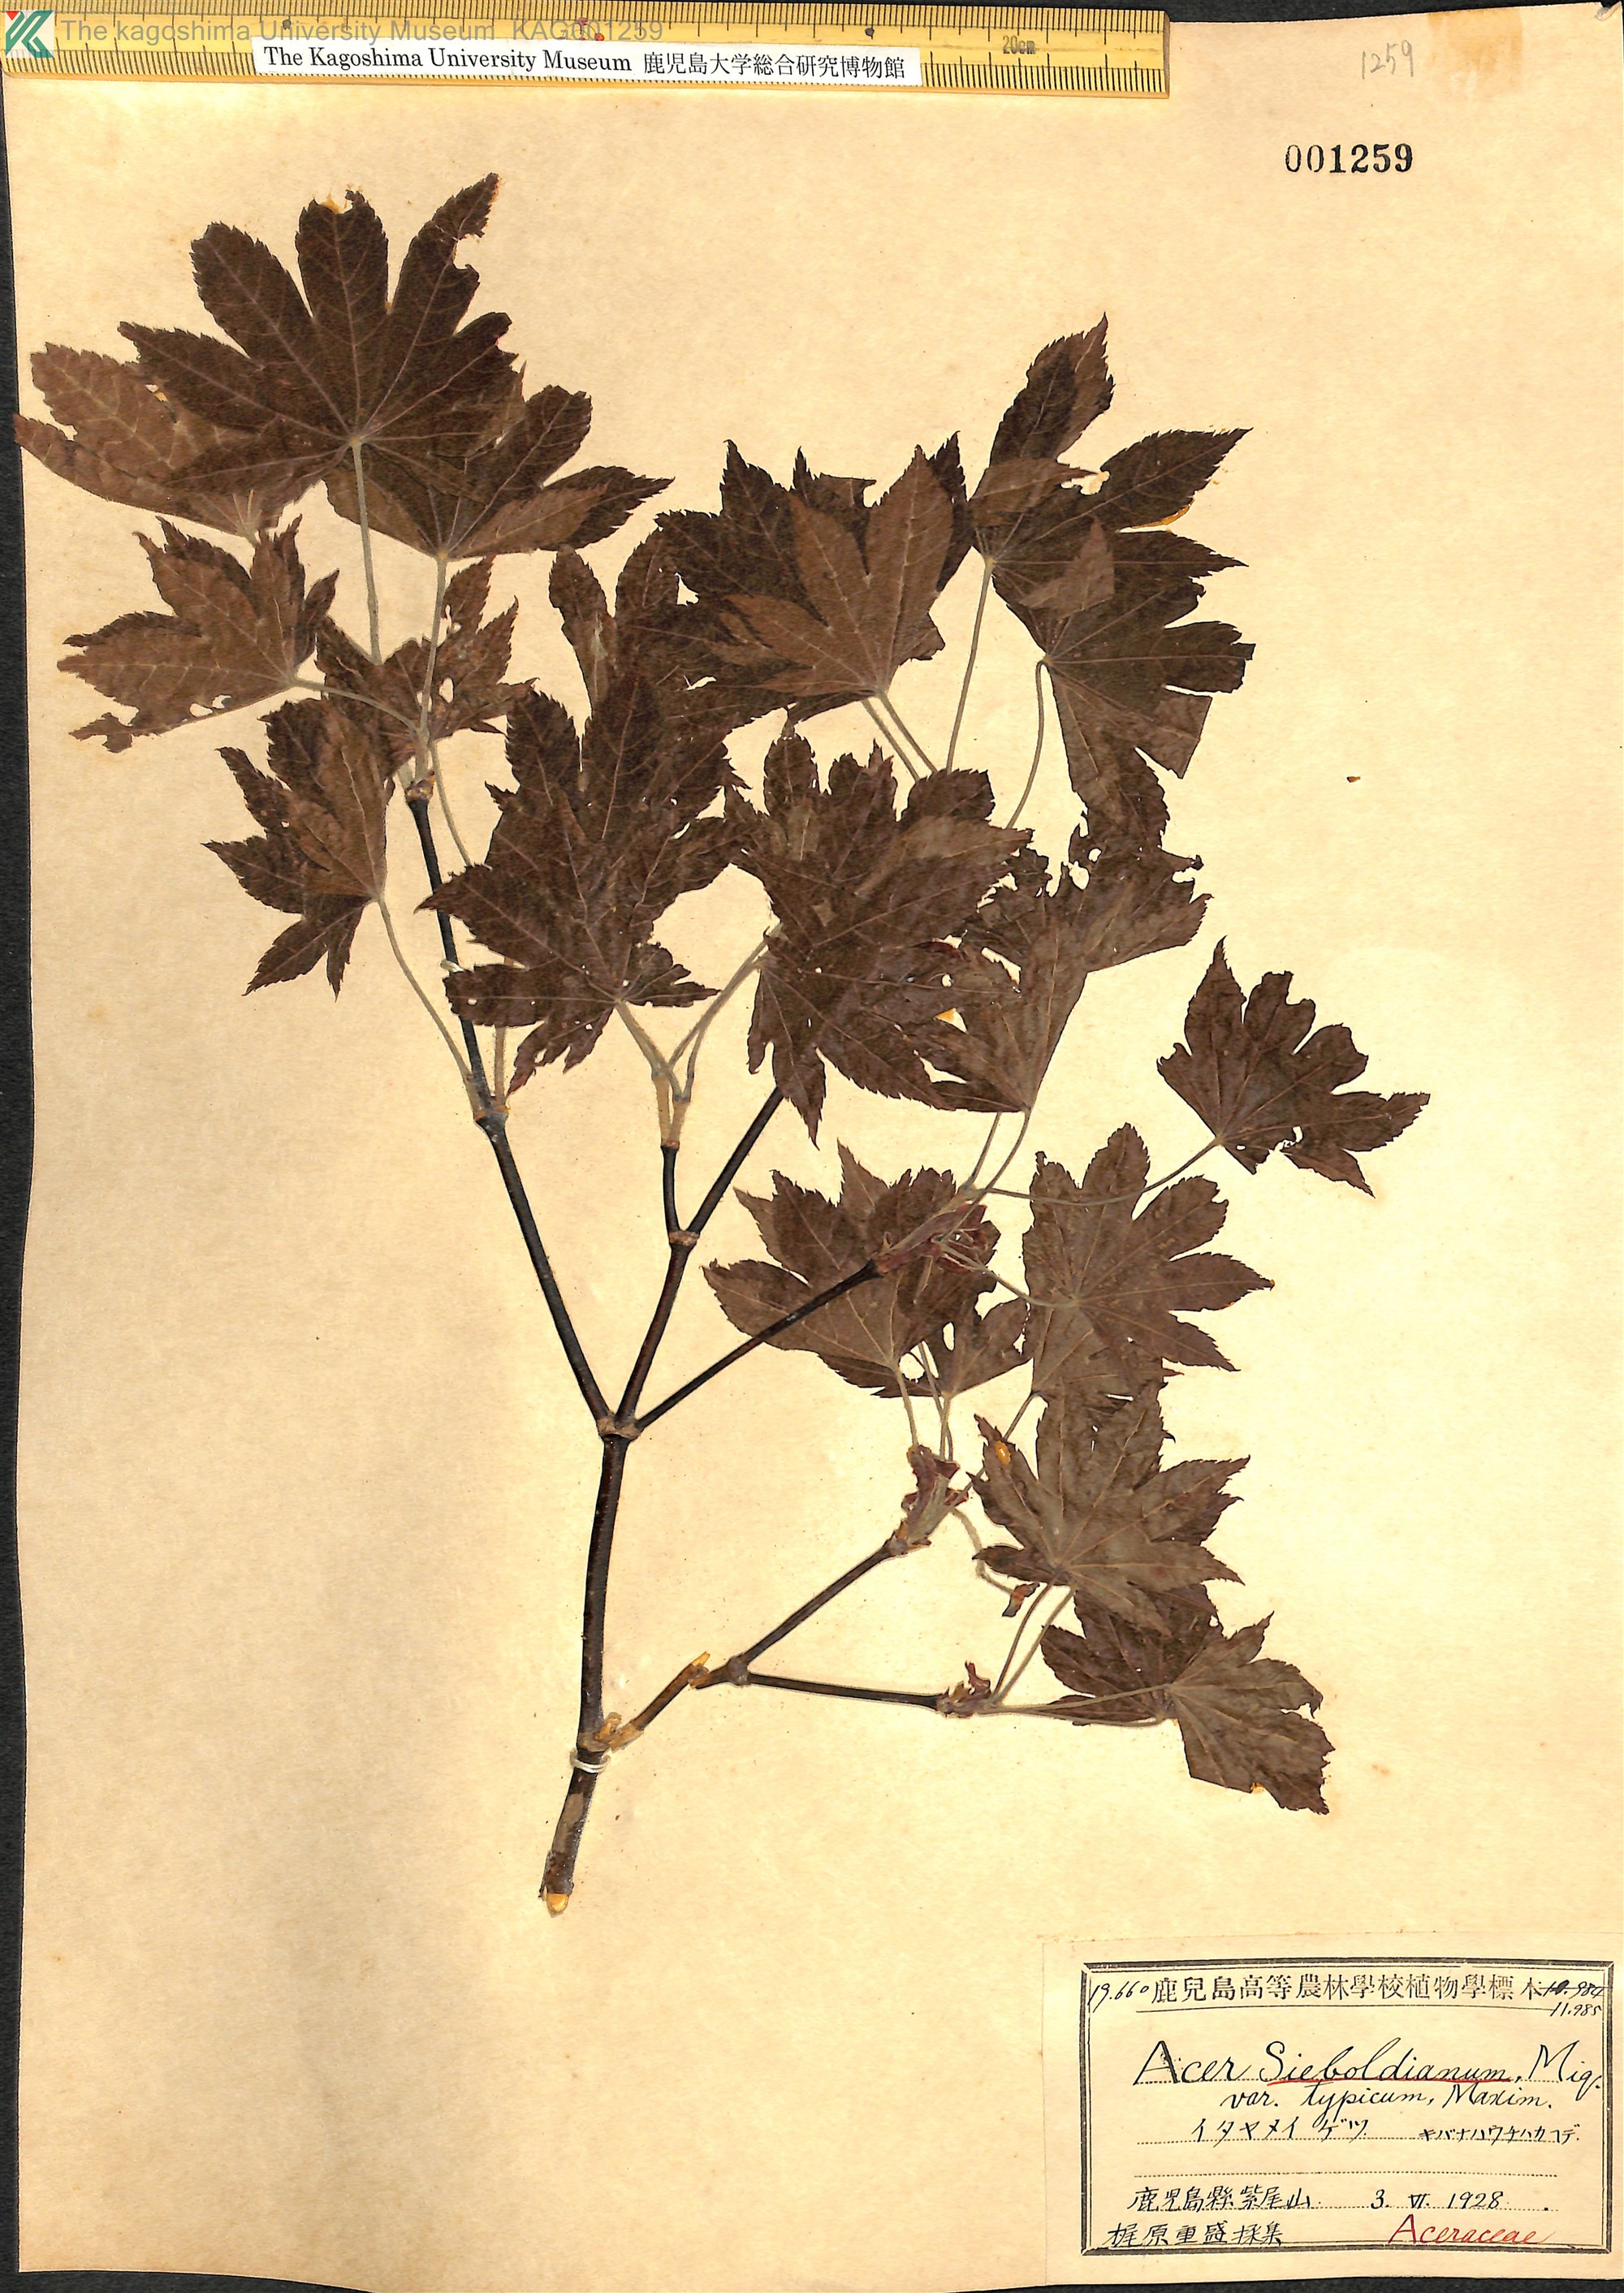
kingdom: Plantae
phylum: Tracheophyta
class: Magnoliopsida
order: Sapindales
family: Sapindaceae
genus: Acer
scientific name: Acer sieboldianum
